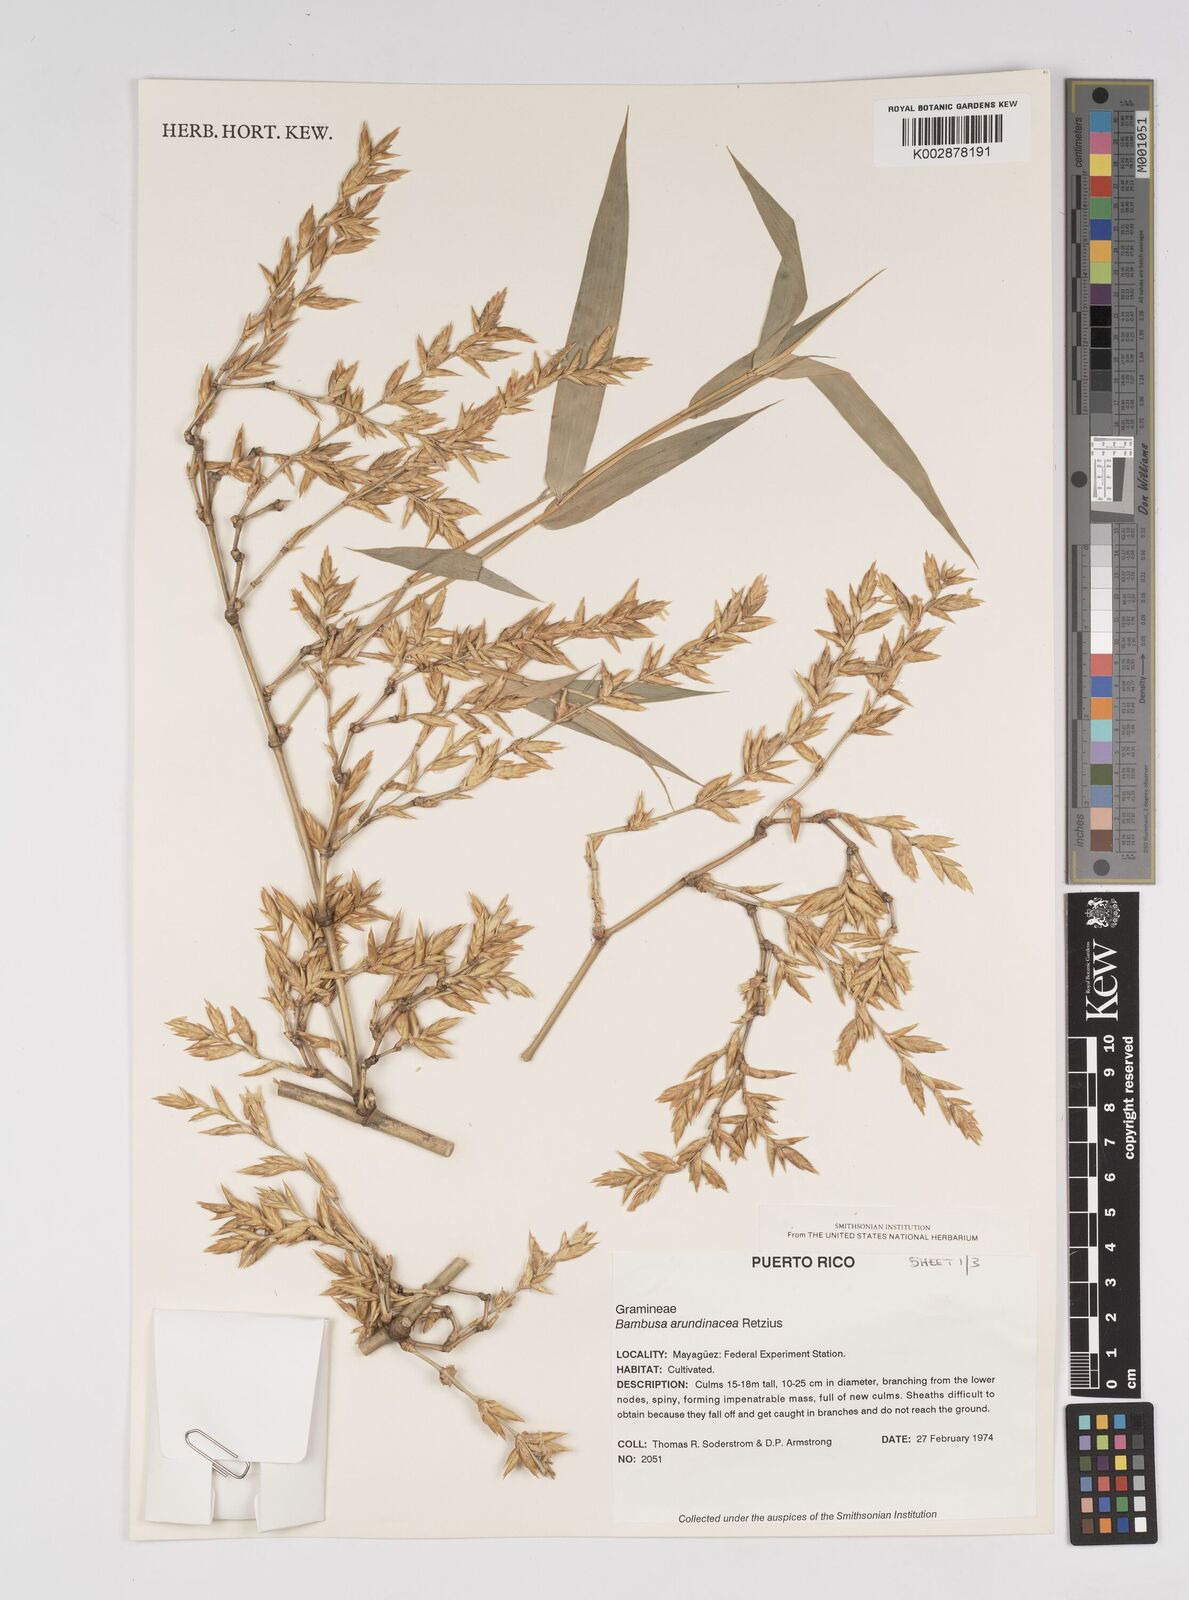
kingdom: Plantae
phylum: Tracheophyta
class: Liliopsida
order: Poales
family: Poaceae
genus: Bambusa
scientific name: Bambusa bambos
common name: Indian thorny bamboo
